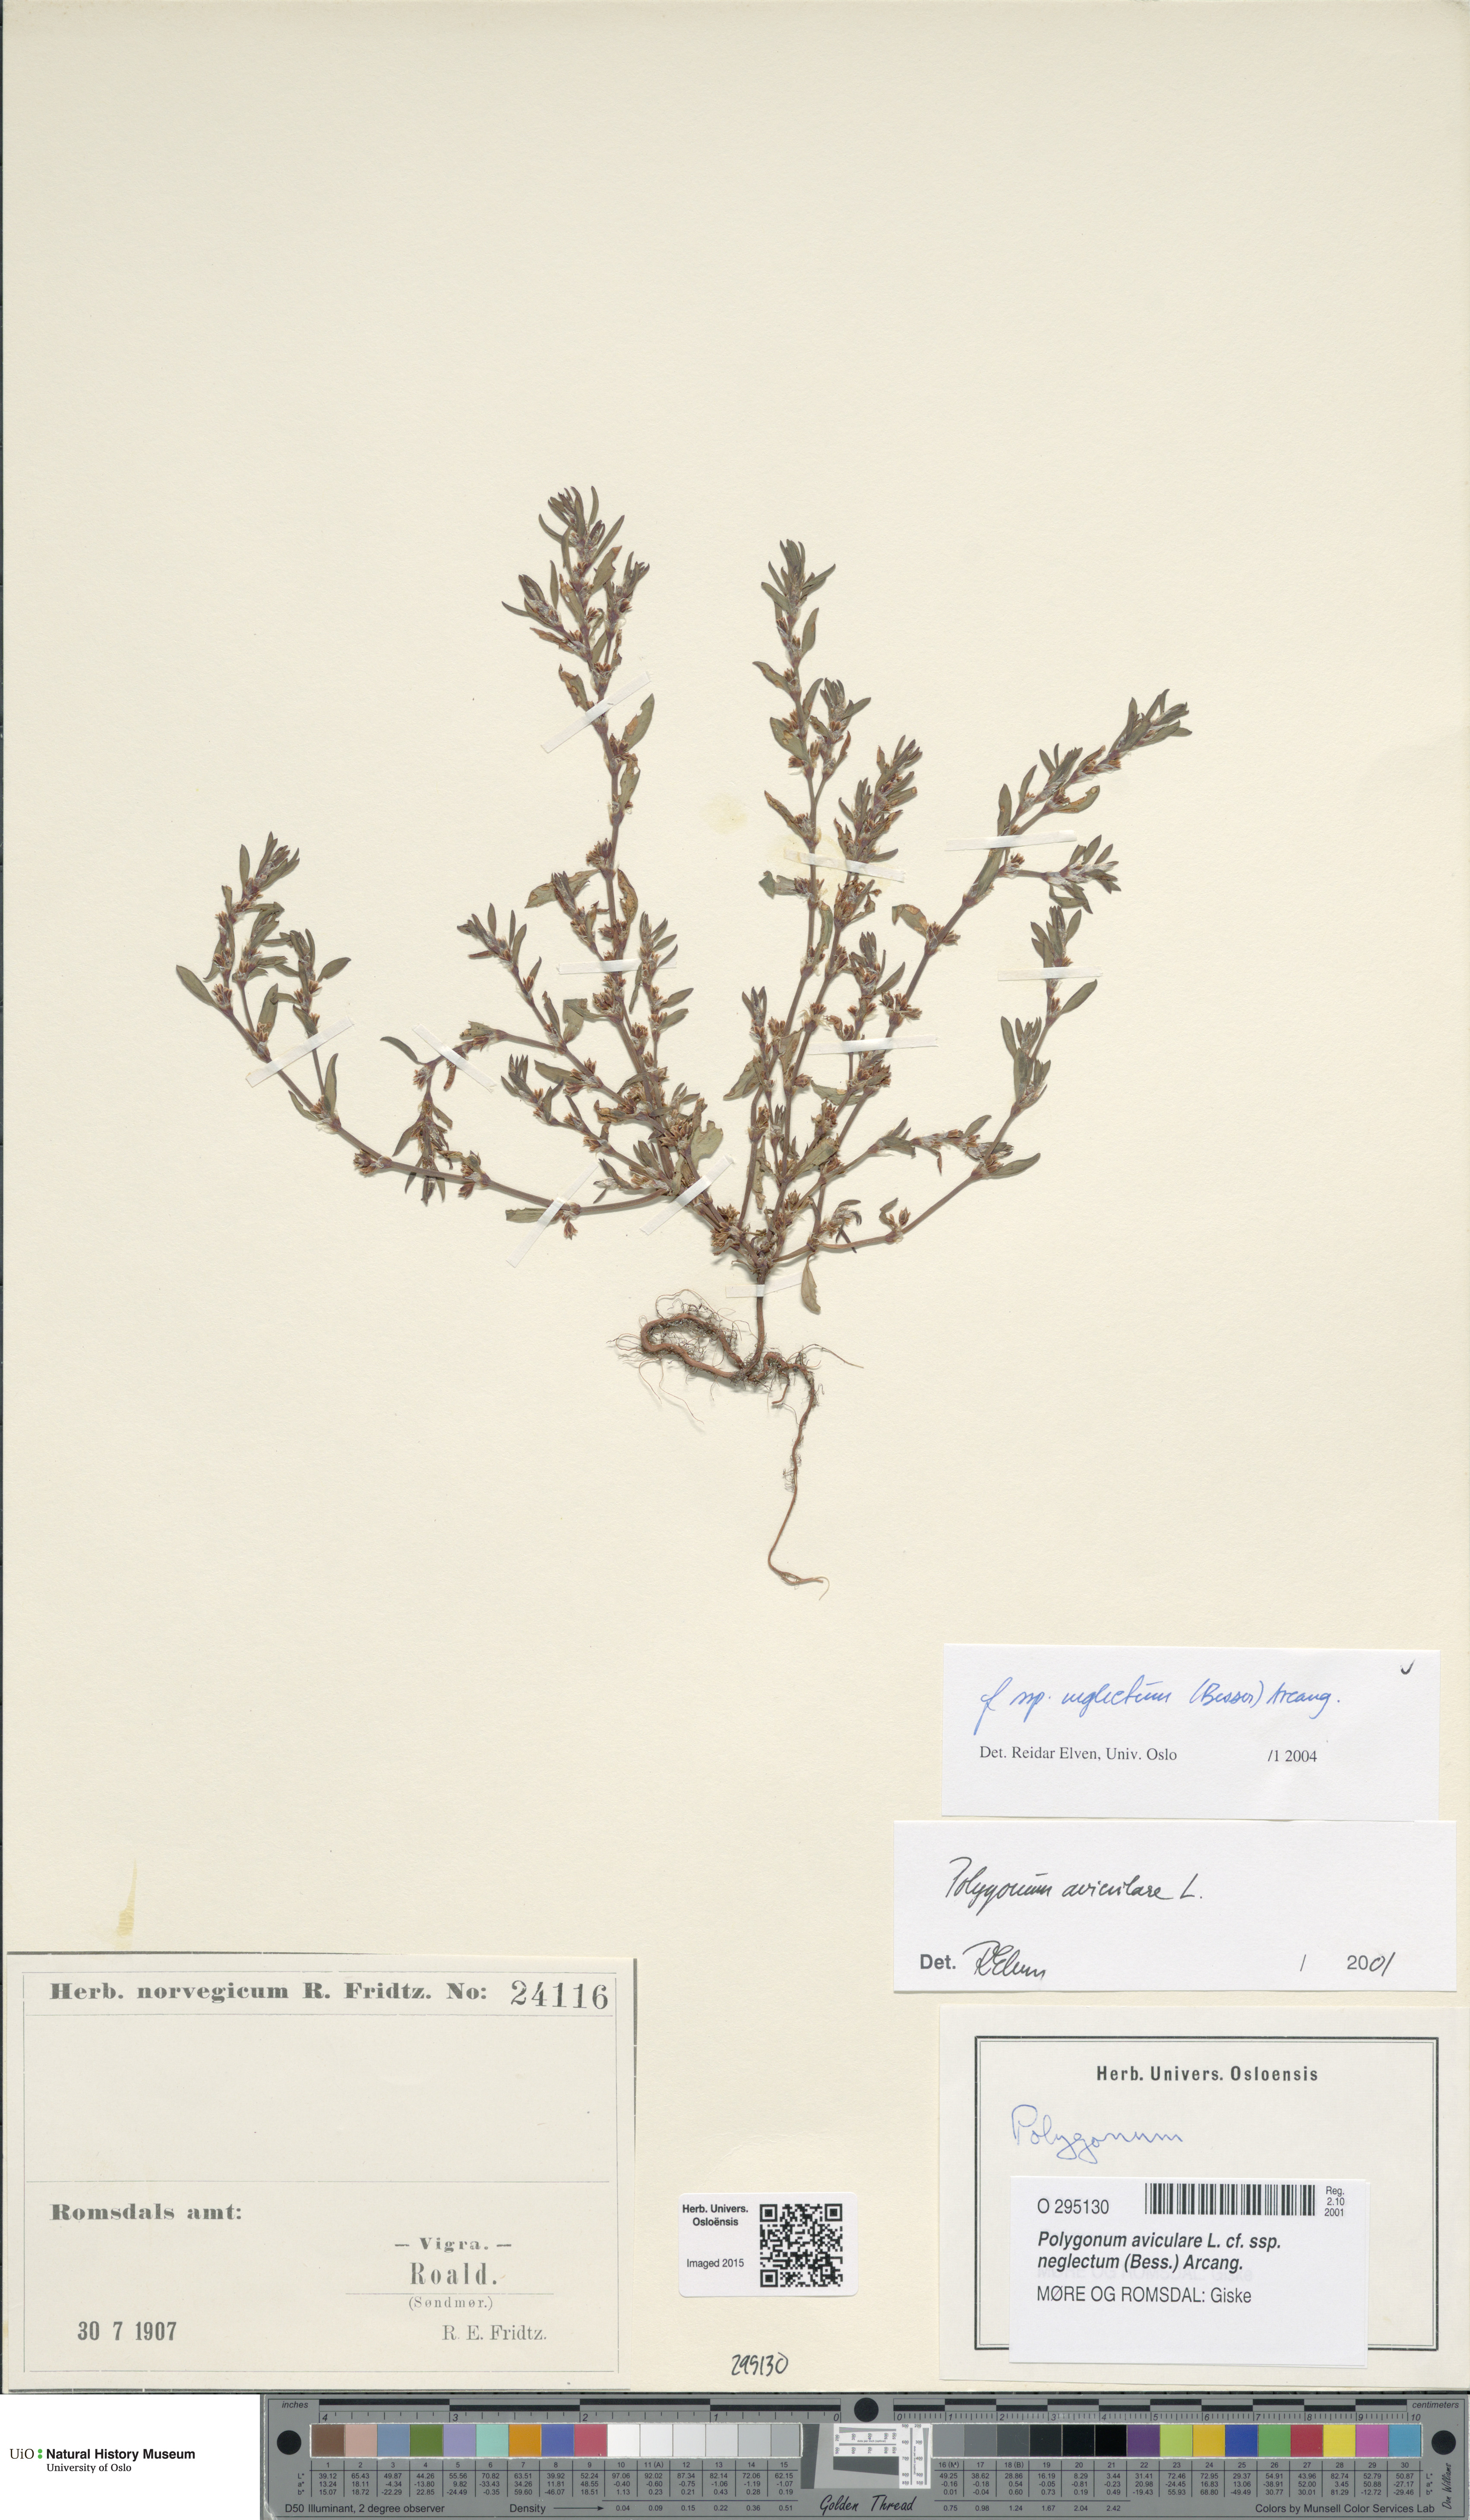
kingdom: Plantae
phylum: Tracheophyta
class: Magnoliopsida
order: Caryophyllales
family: Polygonaceae
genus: Polygonum
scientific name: Polygonum aviculare
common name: Prostrate knotweed
